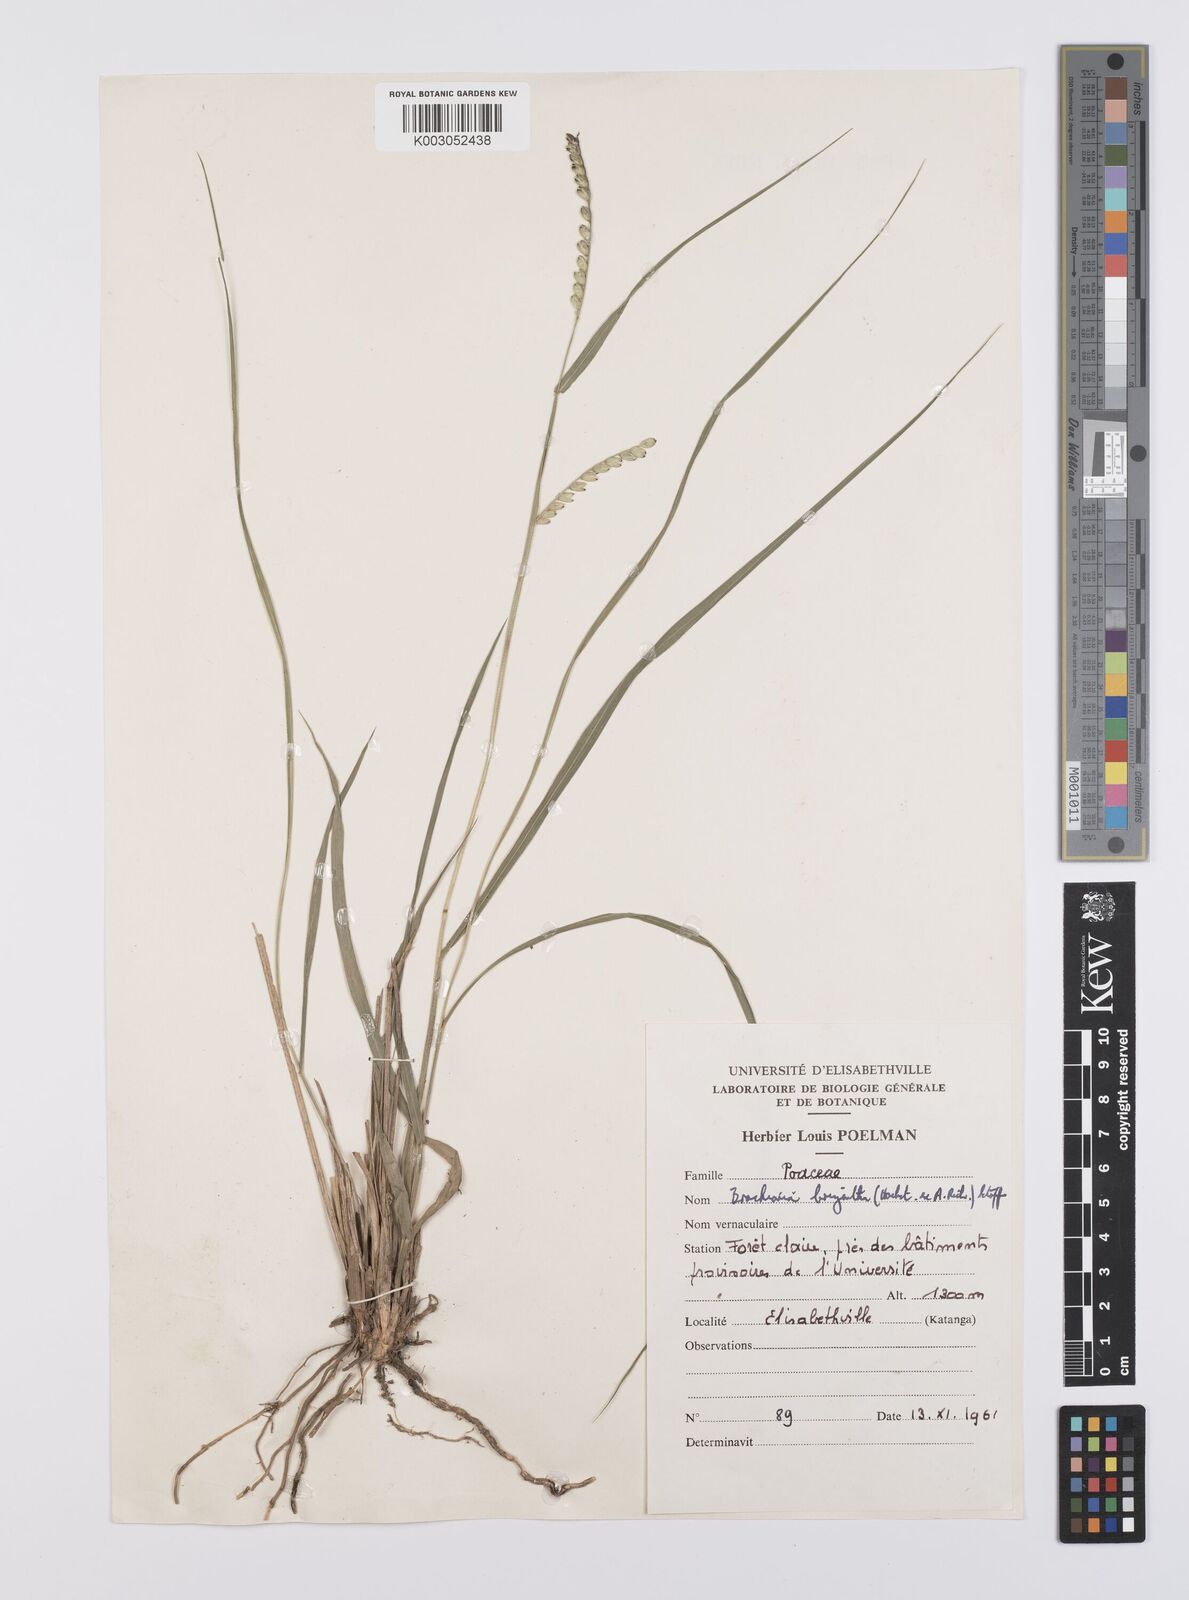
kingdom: Plantae
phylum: Tracheophyta
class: Liliopsida
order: Poales
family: Poaceae
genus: Urochloa
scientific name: Urochloa brizantha
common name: Palisade signalgrass
